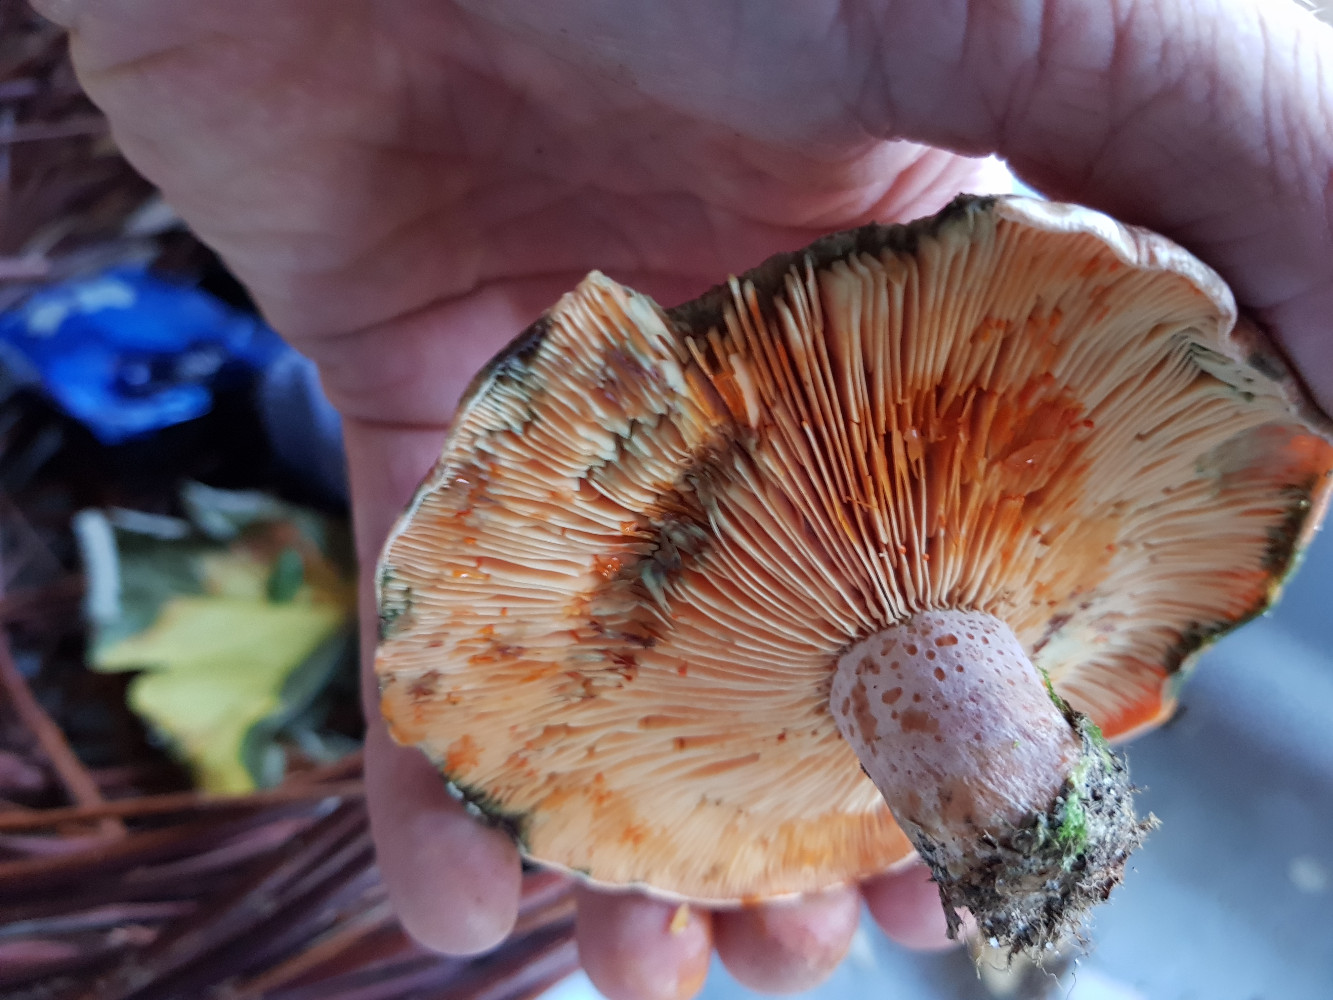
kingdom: Fungi
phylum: Basidiomycota
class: Agaricomycetes
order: Russulales
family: Russulaceae
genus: Lactarius
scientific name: Lactarius deliciosus
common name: velsmagende mælkehat
